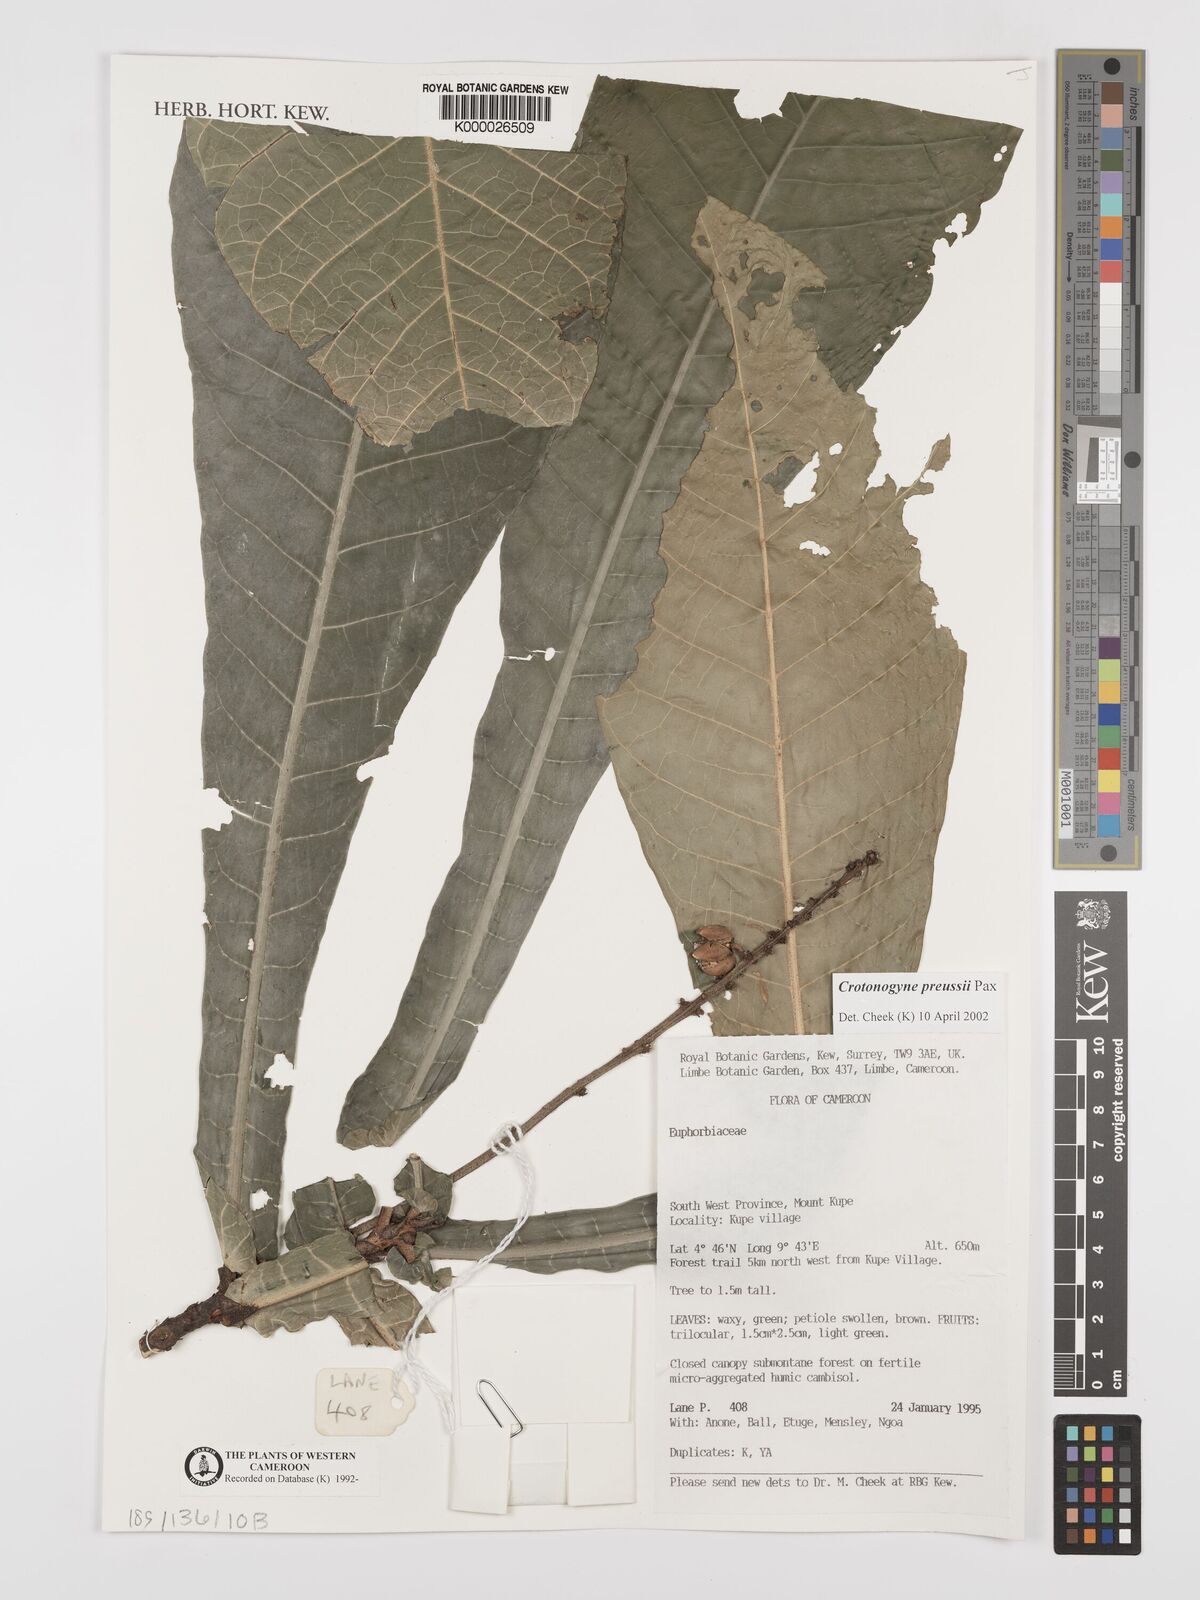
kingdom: Plantae
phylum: Tracheophyta
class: Magnoliopsida
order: Malpighiales
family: Euphorbiaceae
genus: Crotonogyne
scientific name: Crotonogyne preussii
